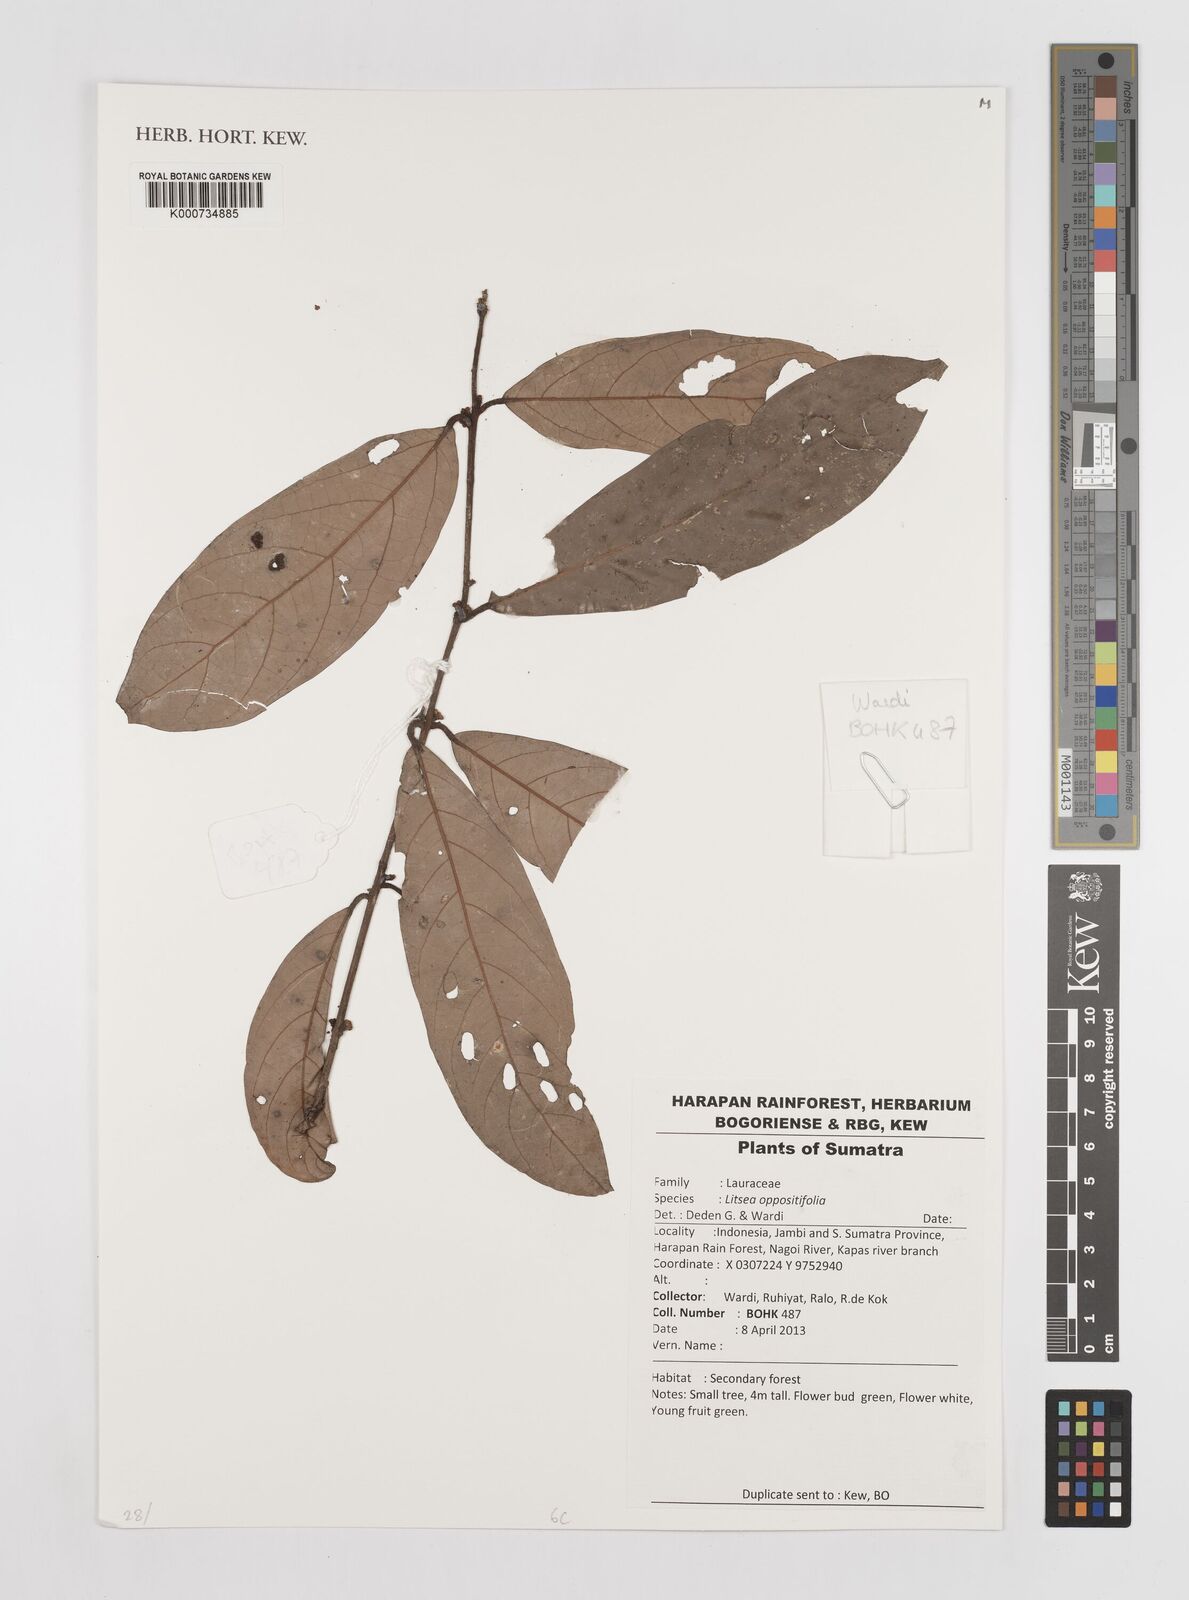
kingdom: Plantae
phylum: Tracheophyta
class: Magnoliopsida
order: Laurales
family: Lauraceae
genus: Litsea
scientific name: Litsea oppositifolia
